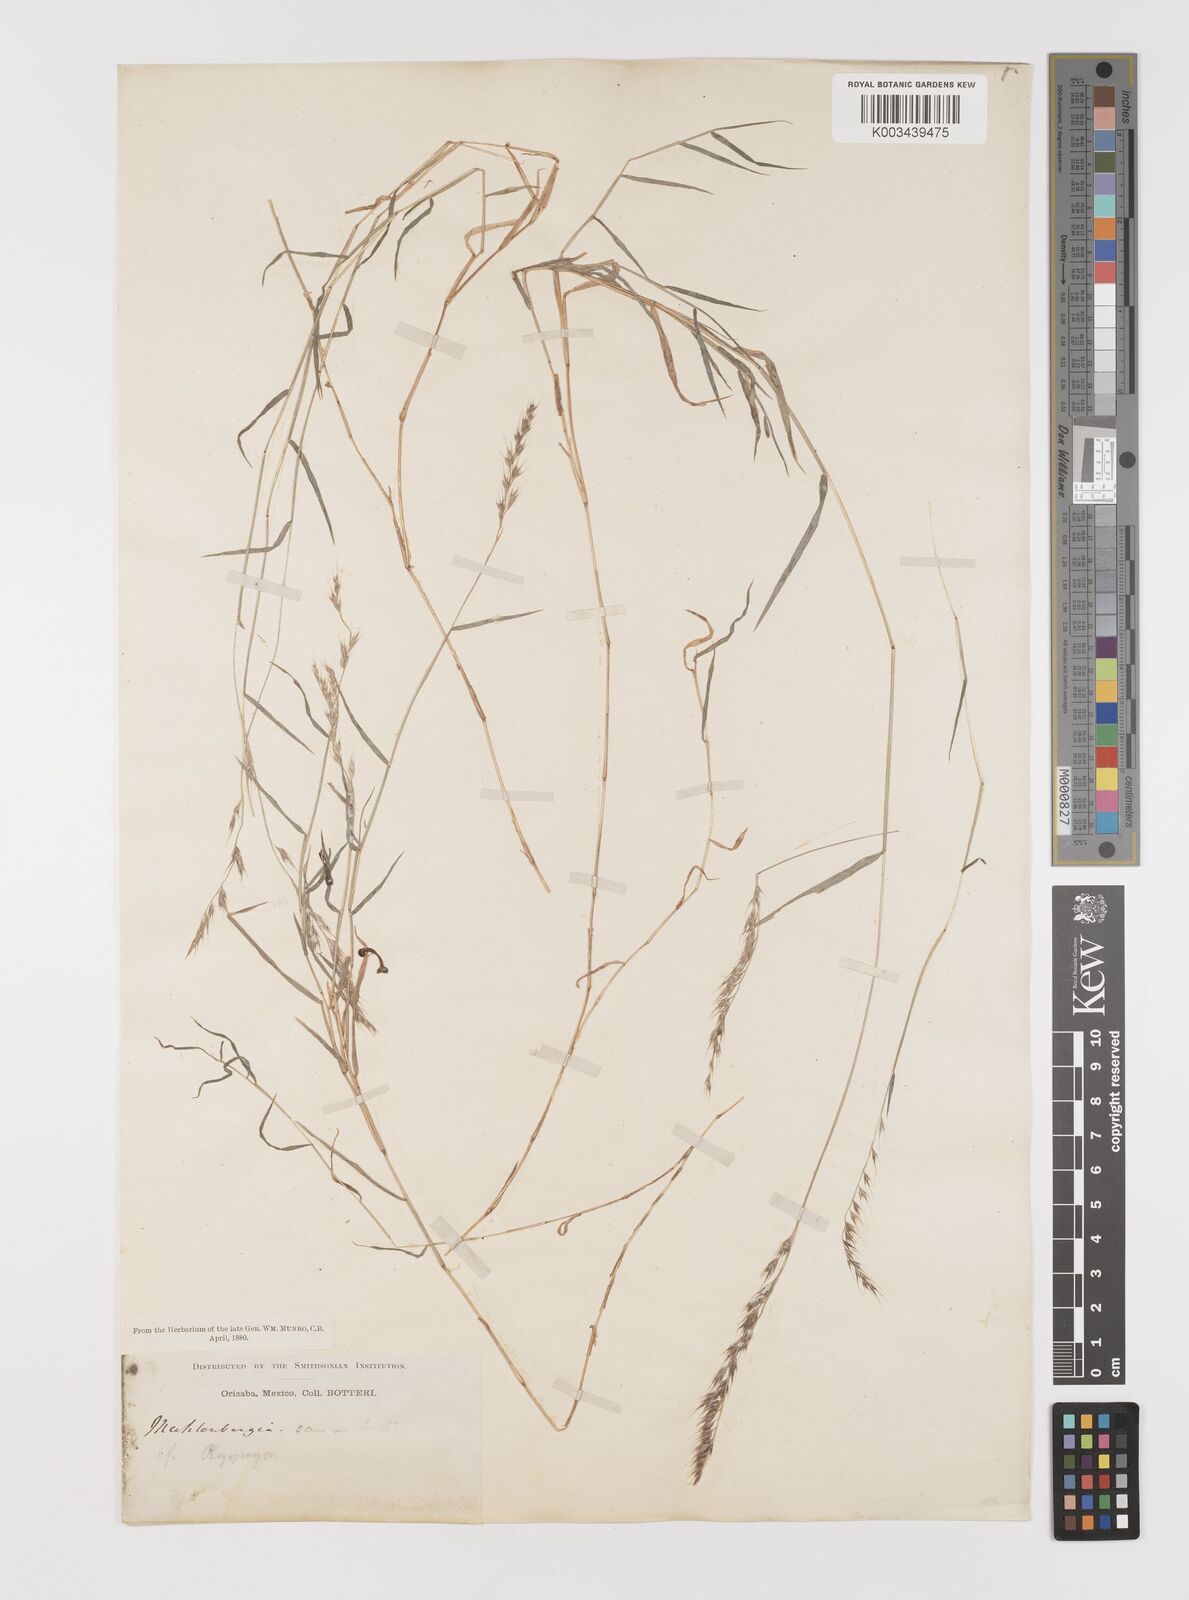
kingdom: Plantae
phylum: Tracheophyta
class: Liliopsida
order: Poales
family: Poaceae
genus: Bouteloua
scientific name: Bouteloua
